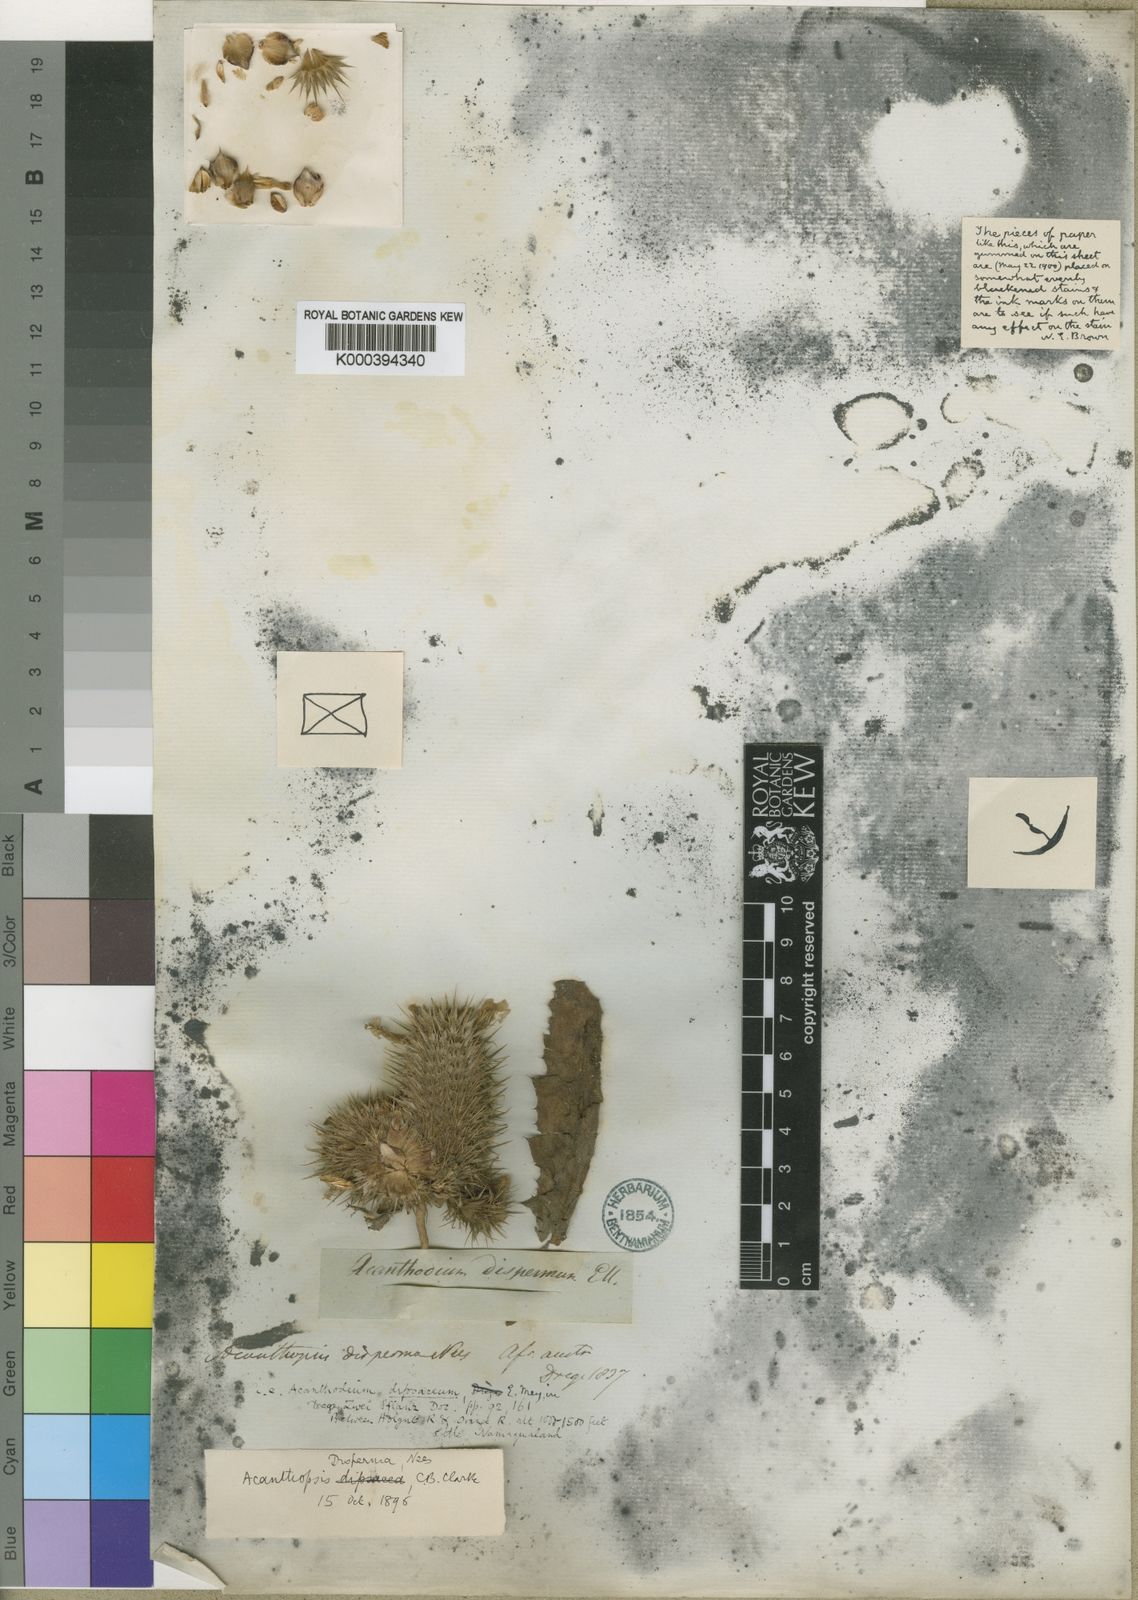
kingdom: Plantae
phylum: Tracheophyta
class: Magnoliopsida
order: Lamiales
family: Acanthaceae
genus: Acanthopsis
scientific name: Acanthopsis disperma
